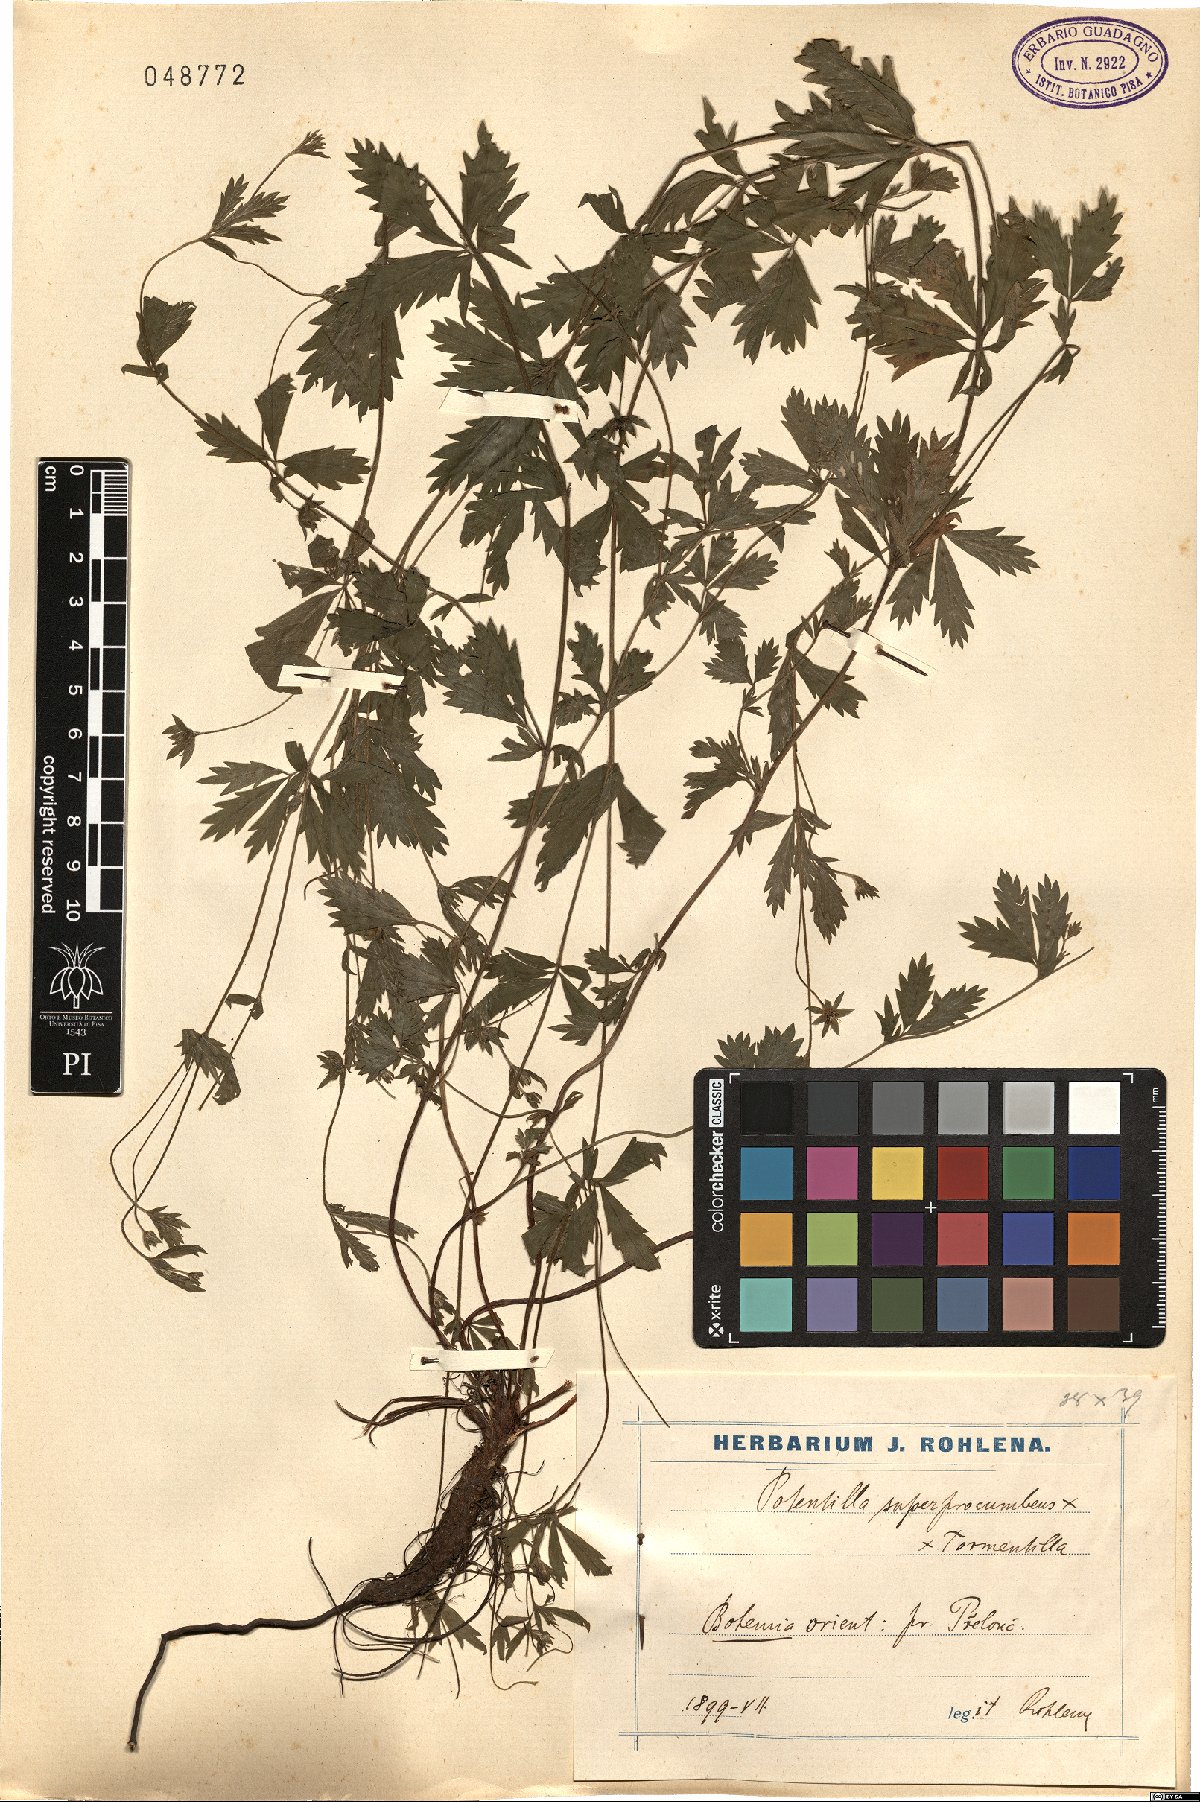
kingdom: Plantae
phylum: Tracheophyta
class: Magnoliopsida
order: Rosales
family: Rosaceae
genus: Potentilla
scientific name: Potentilla
